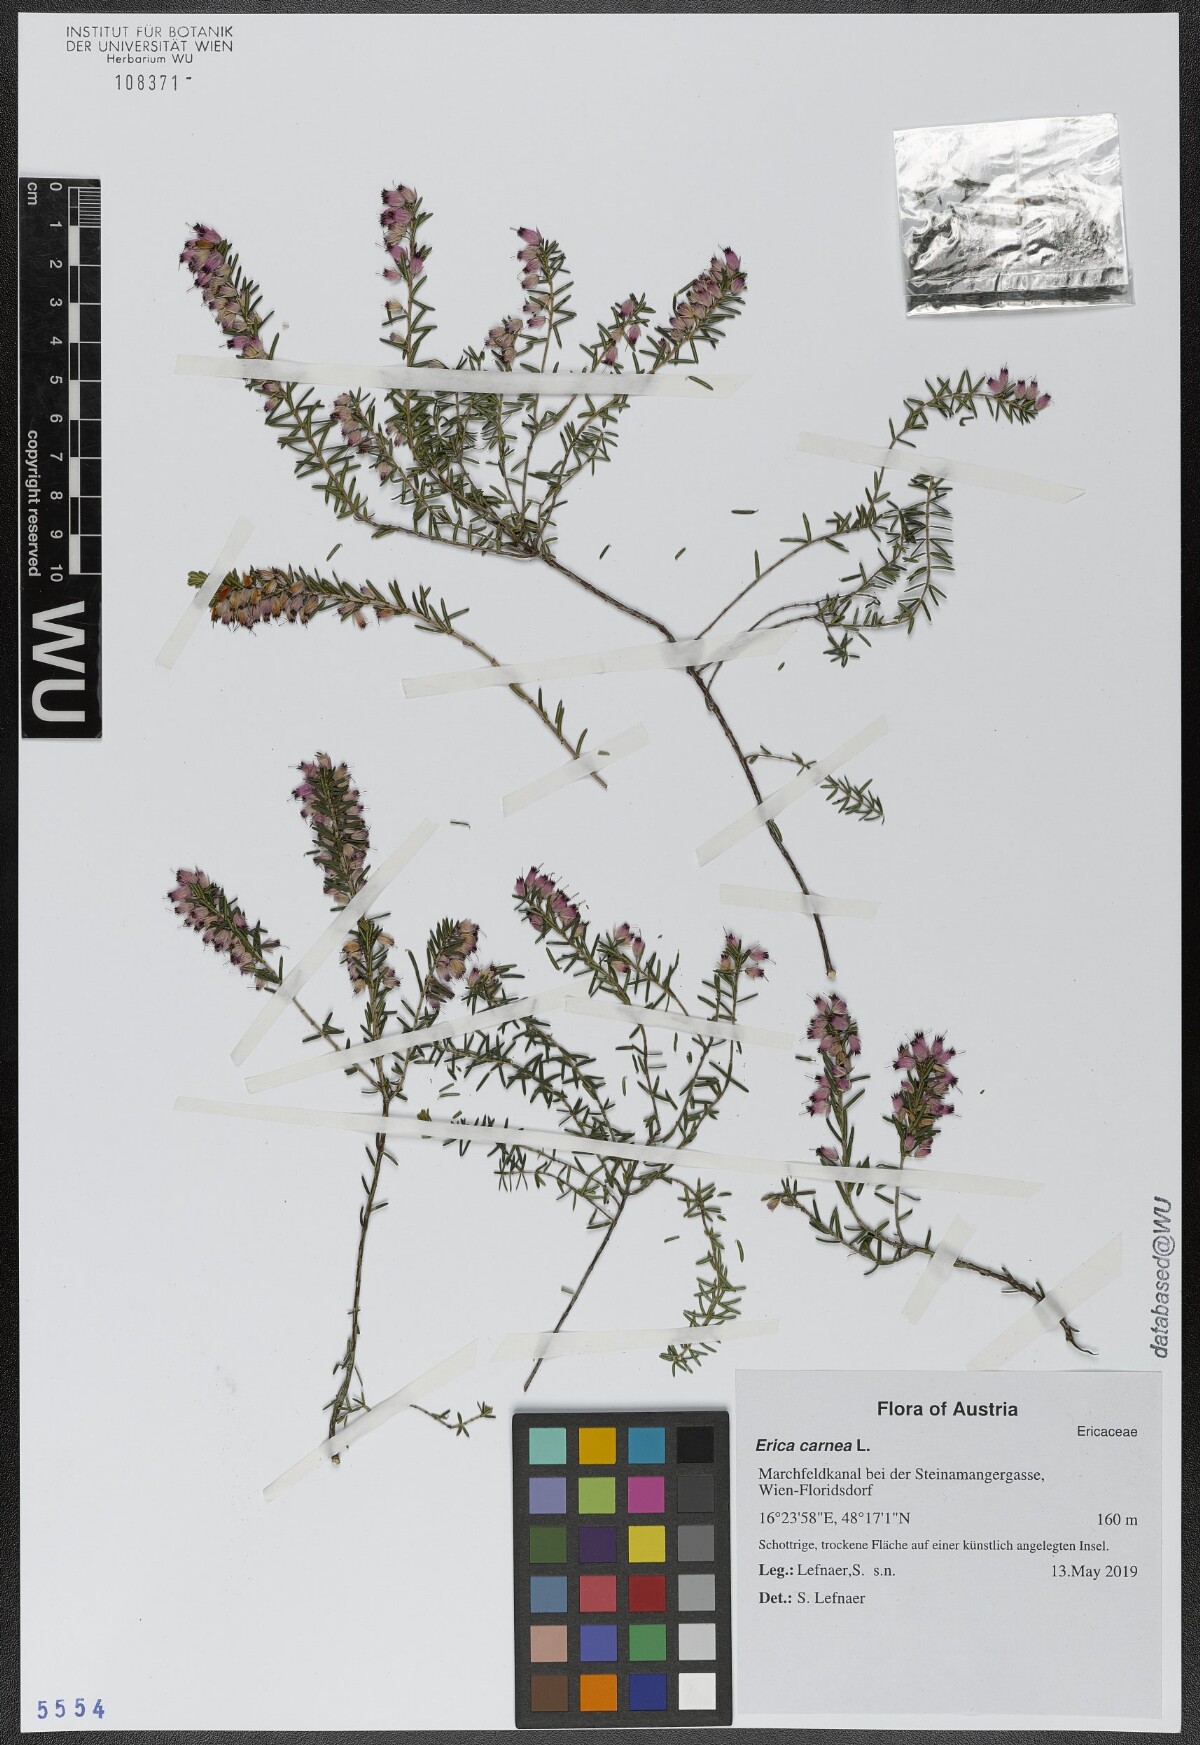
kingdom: Plantae
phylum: Tracheophyta
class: Magnoliopsida
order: Ericales
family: Ericaceae
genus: Erica
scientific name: Erica carnea
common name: Winter heath
